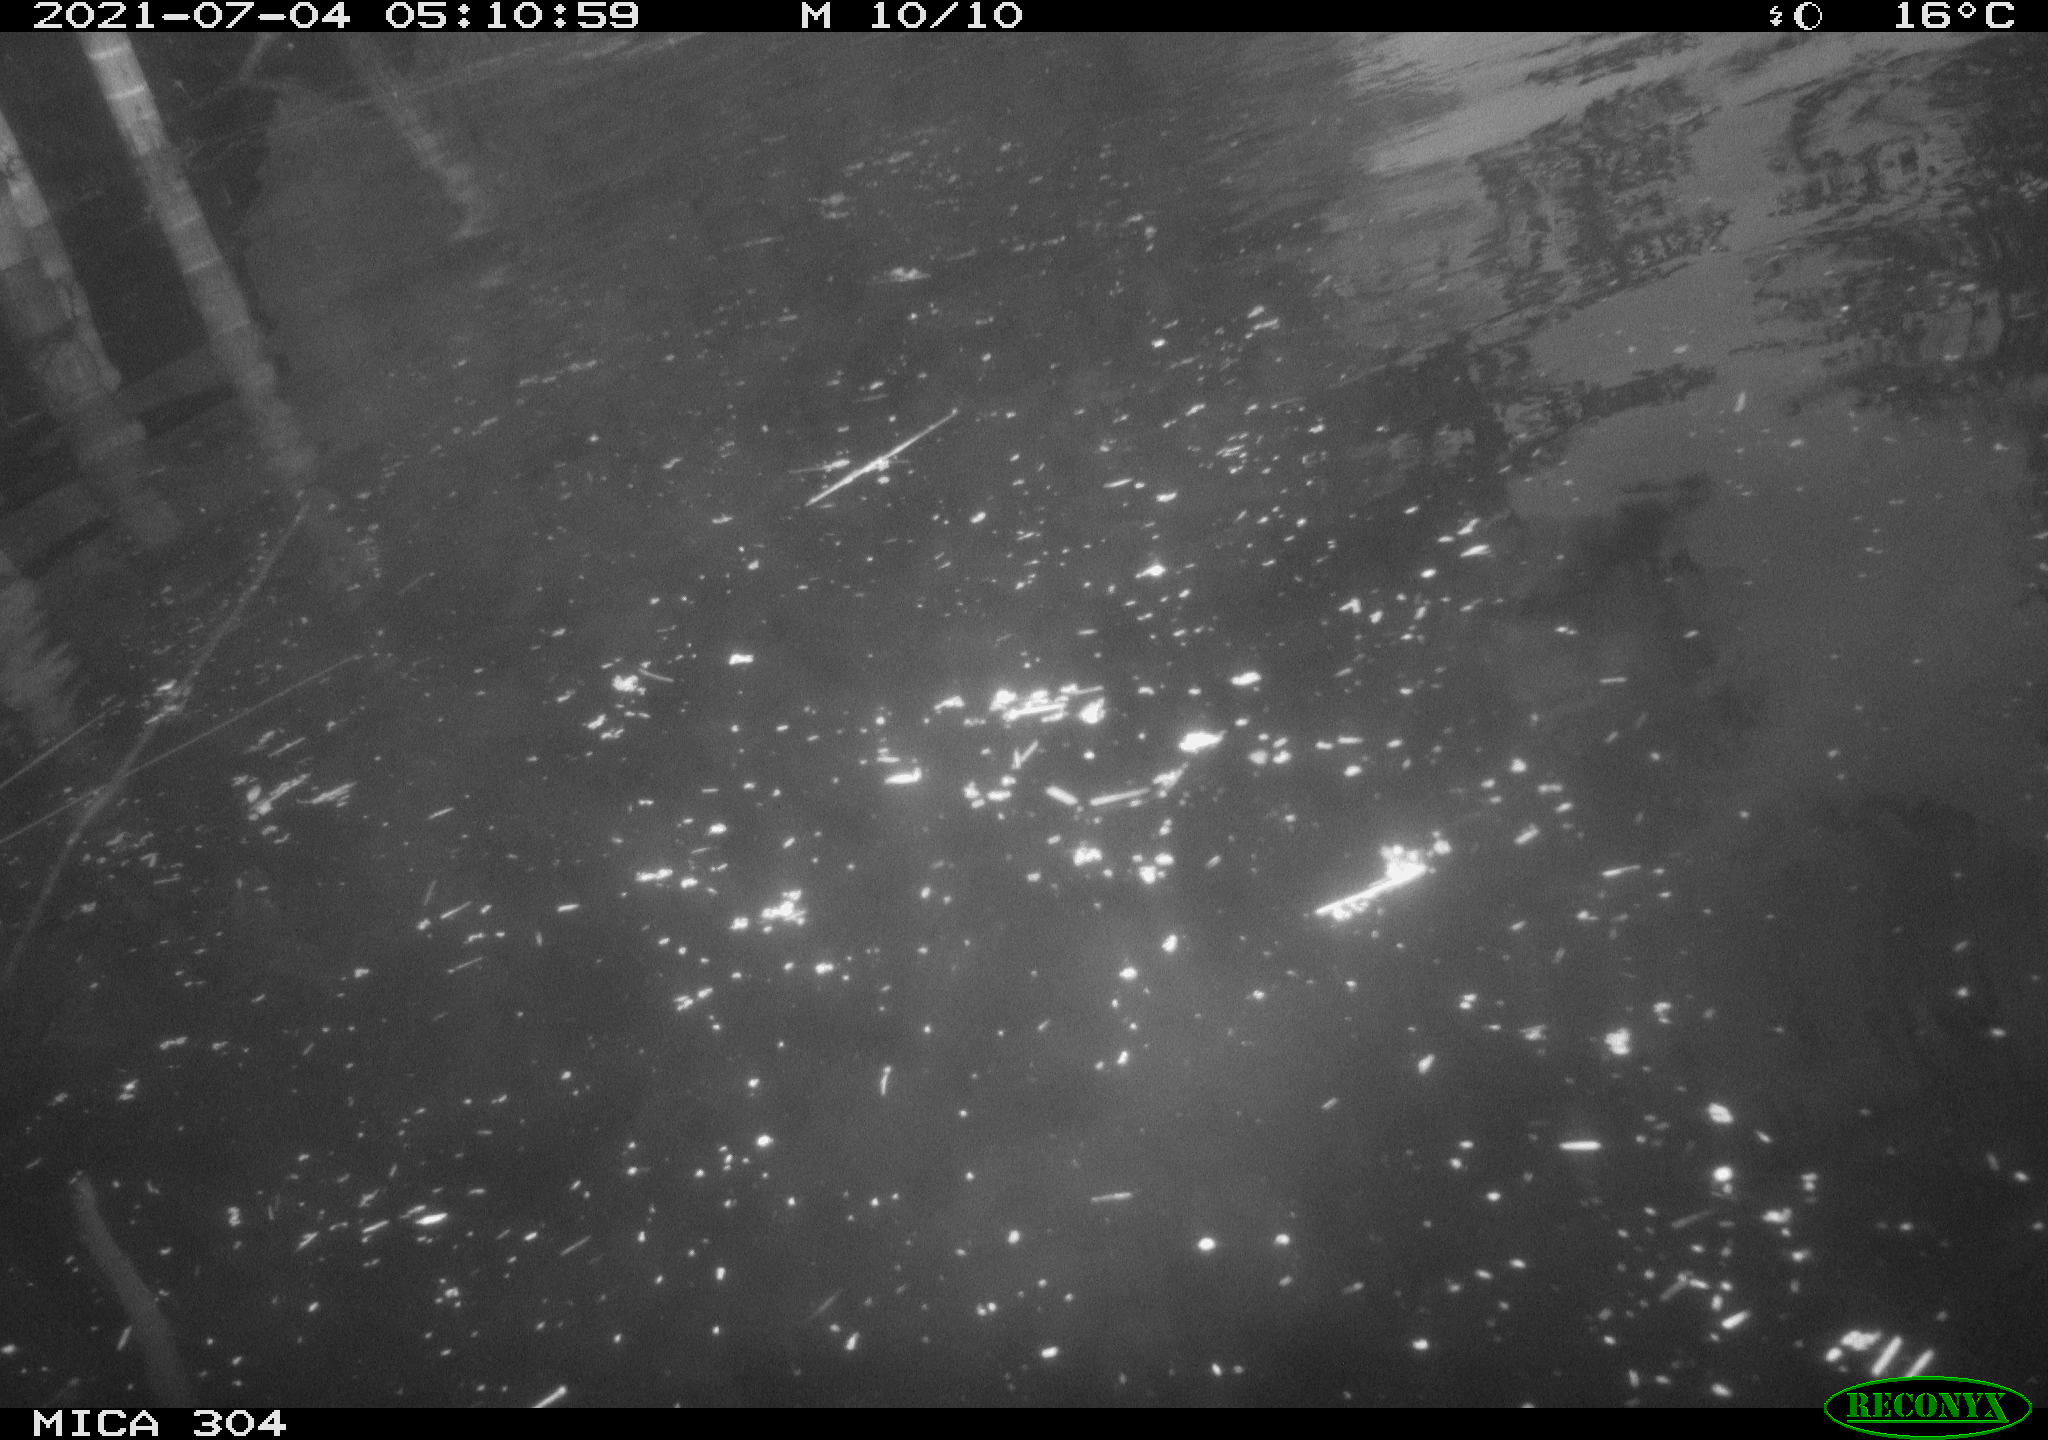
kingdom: Animalia
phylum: Chordata
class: Aves
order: Gruiformes
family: Rallidae
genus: Fulica
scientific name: Fulica atra
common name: Eurasian coot
